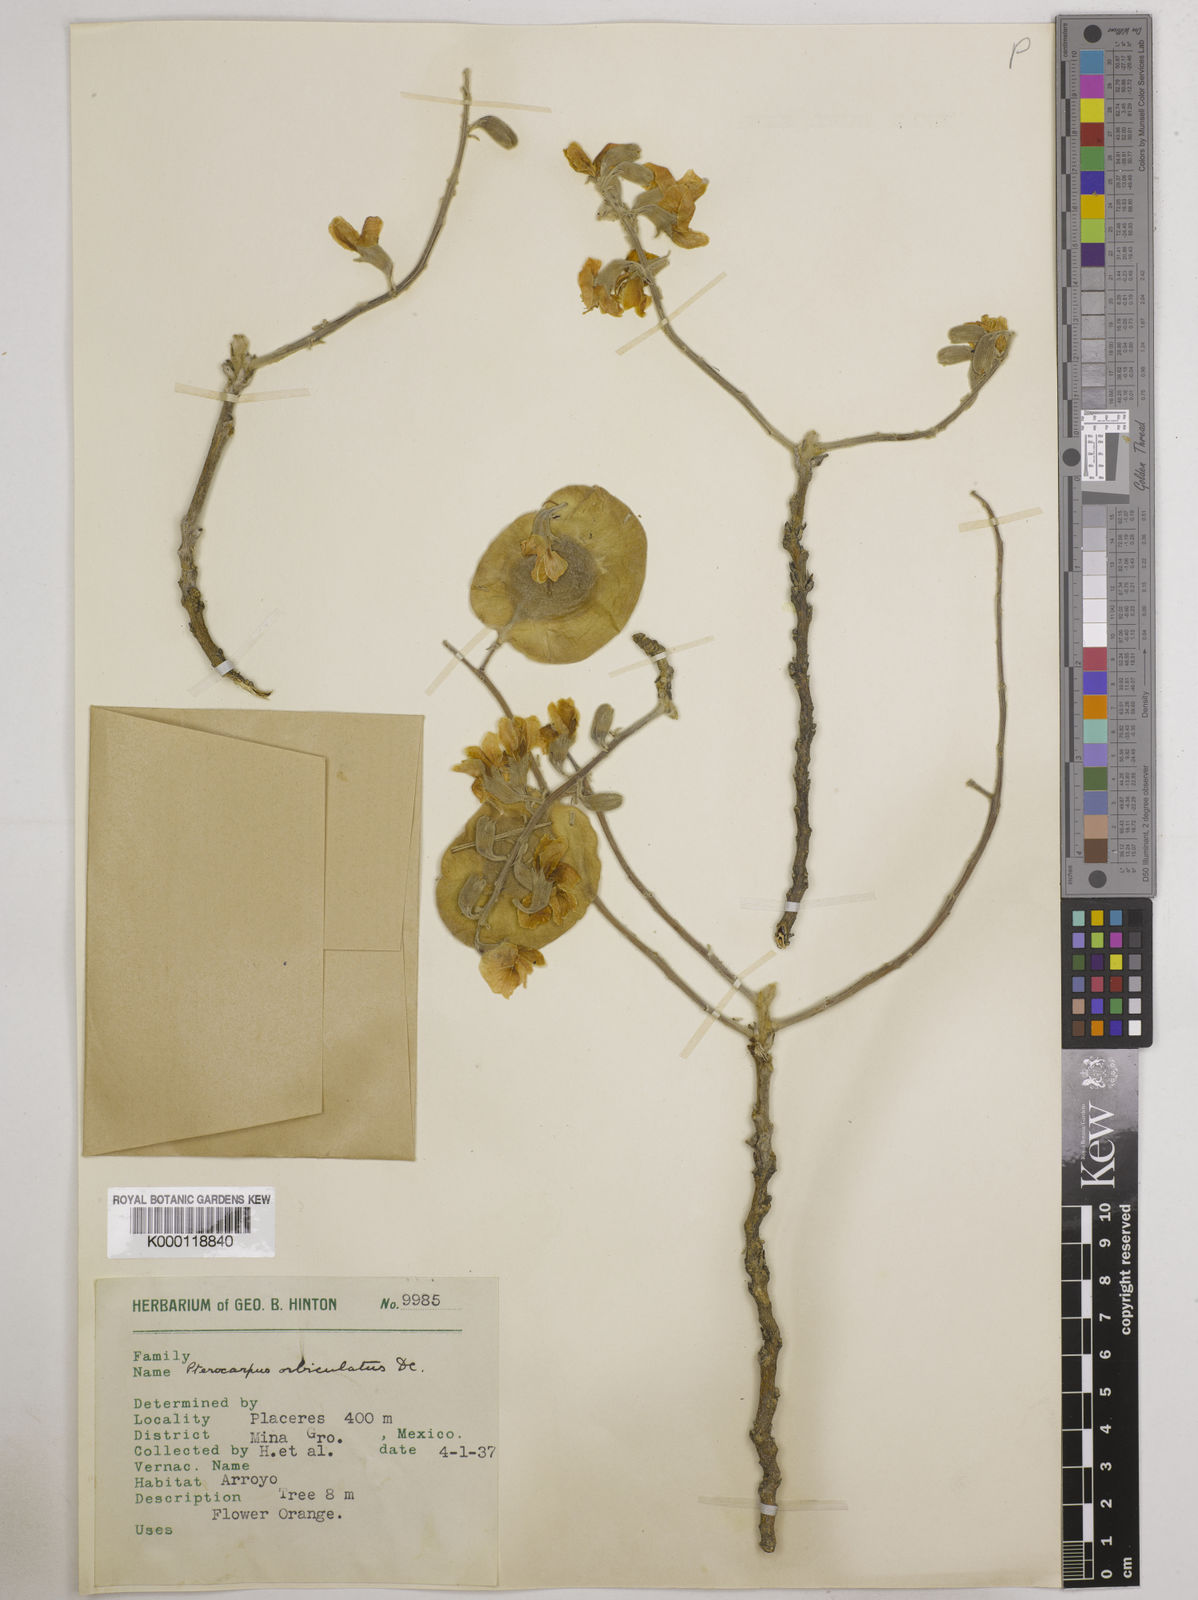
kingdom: Plantae
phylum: Tracheophyta
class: Magnoliopsida
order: Fabales
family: Fabaceae
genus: Pterocarpus
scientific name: Pterocarpus orbiculatus
